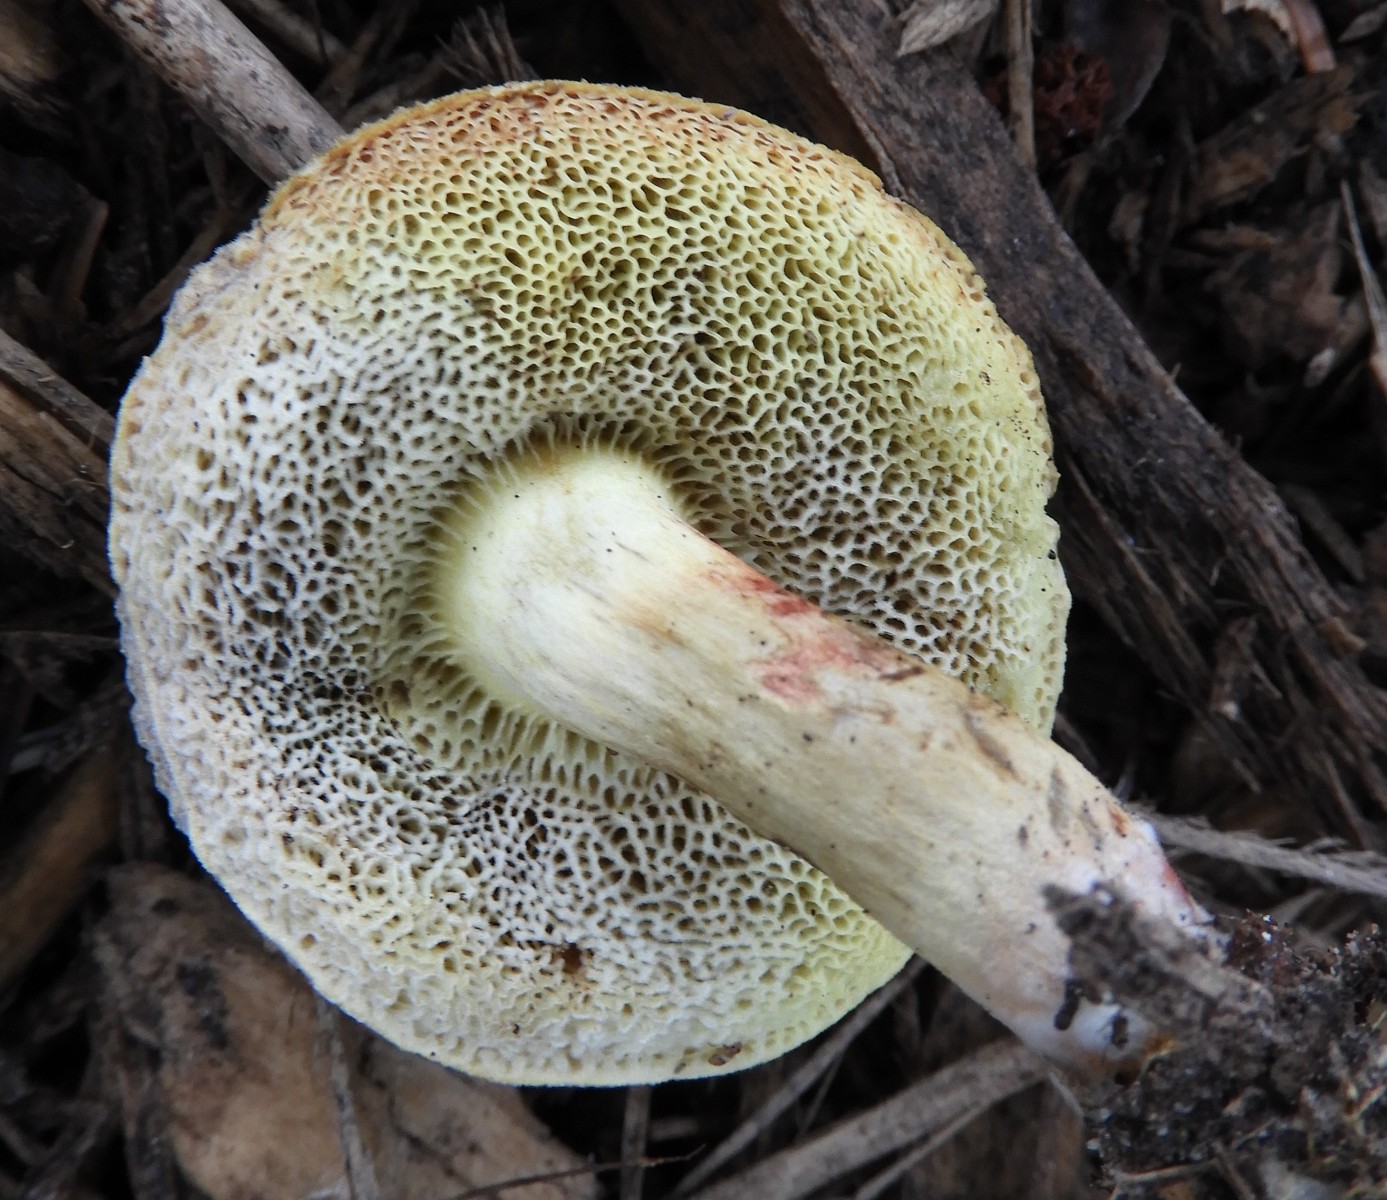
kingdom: Fungi
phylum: Basidiomycota
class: Agaricomycetes
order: Boletales
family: Boletaceae
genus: Xerocomellus
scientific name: Xerocomellus porosporus
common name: hvidsprukken rørhat
